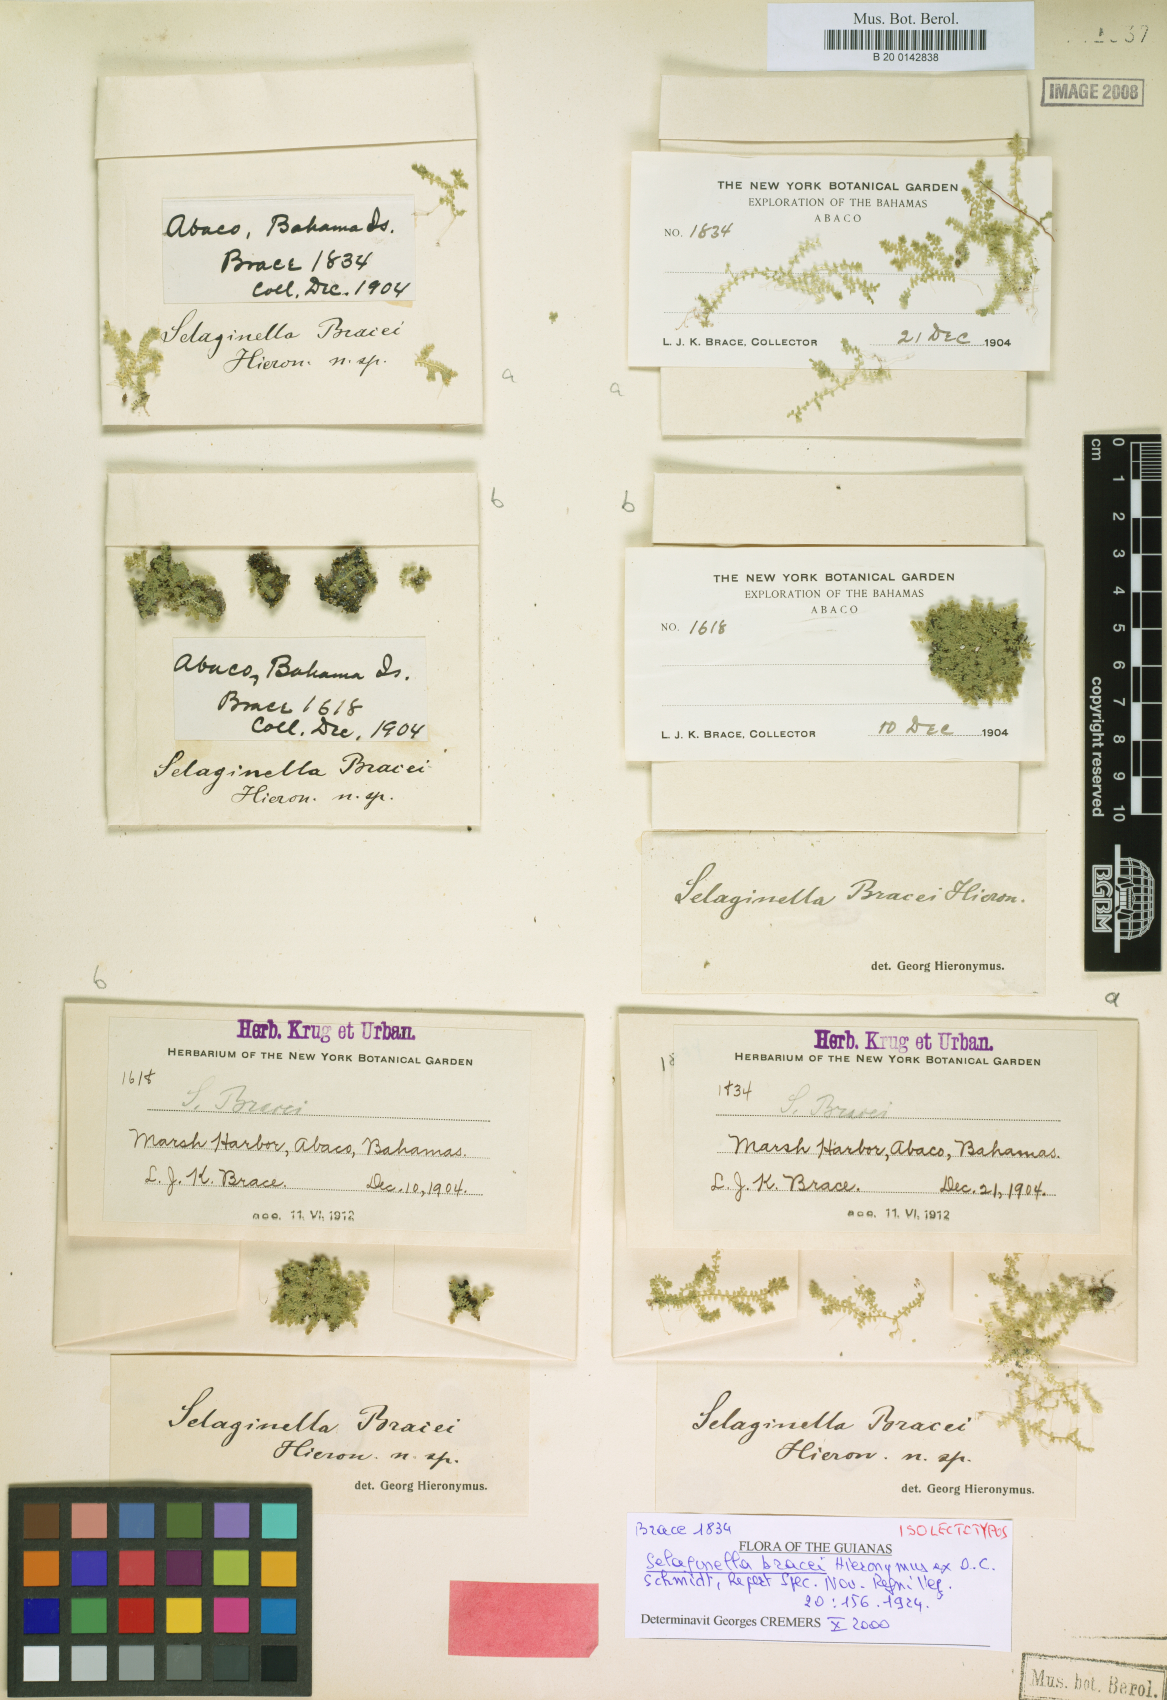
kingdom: Plantae
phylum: Tracheophyta
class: Lycopodiopsida
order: Selaginellales
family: Selaginellaceae
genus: Selaginella
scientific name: Selaginella eatonii
